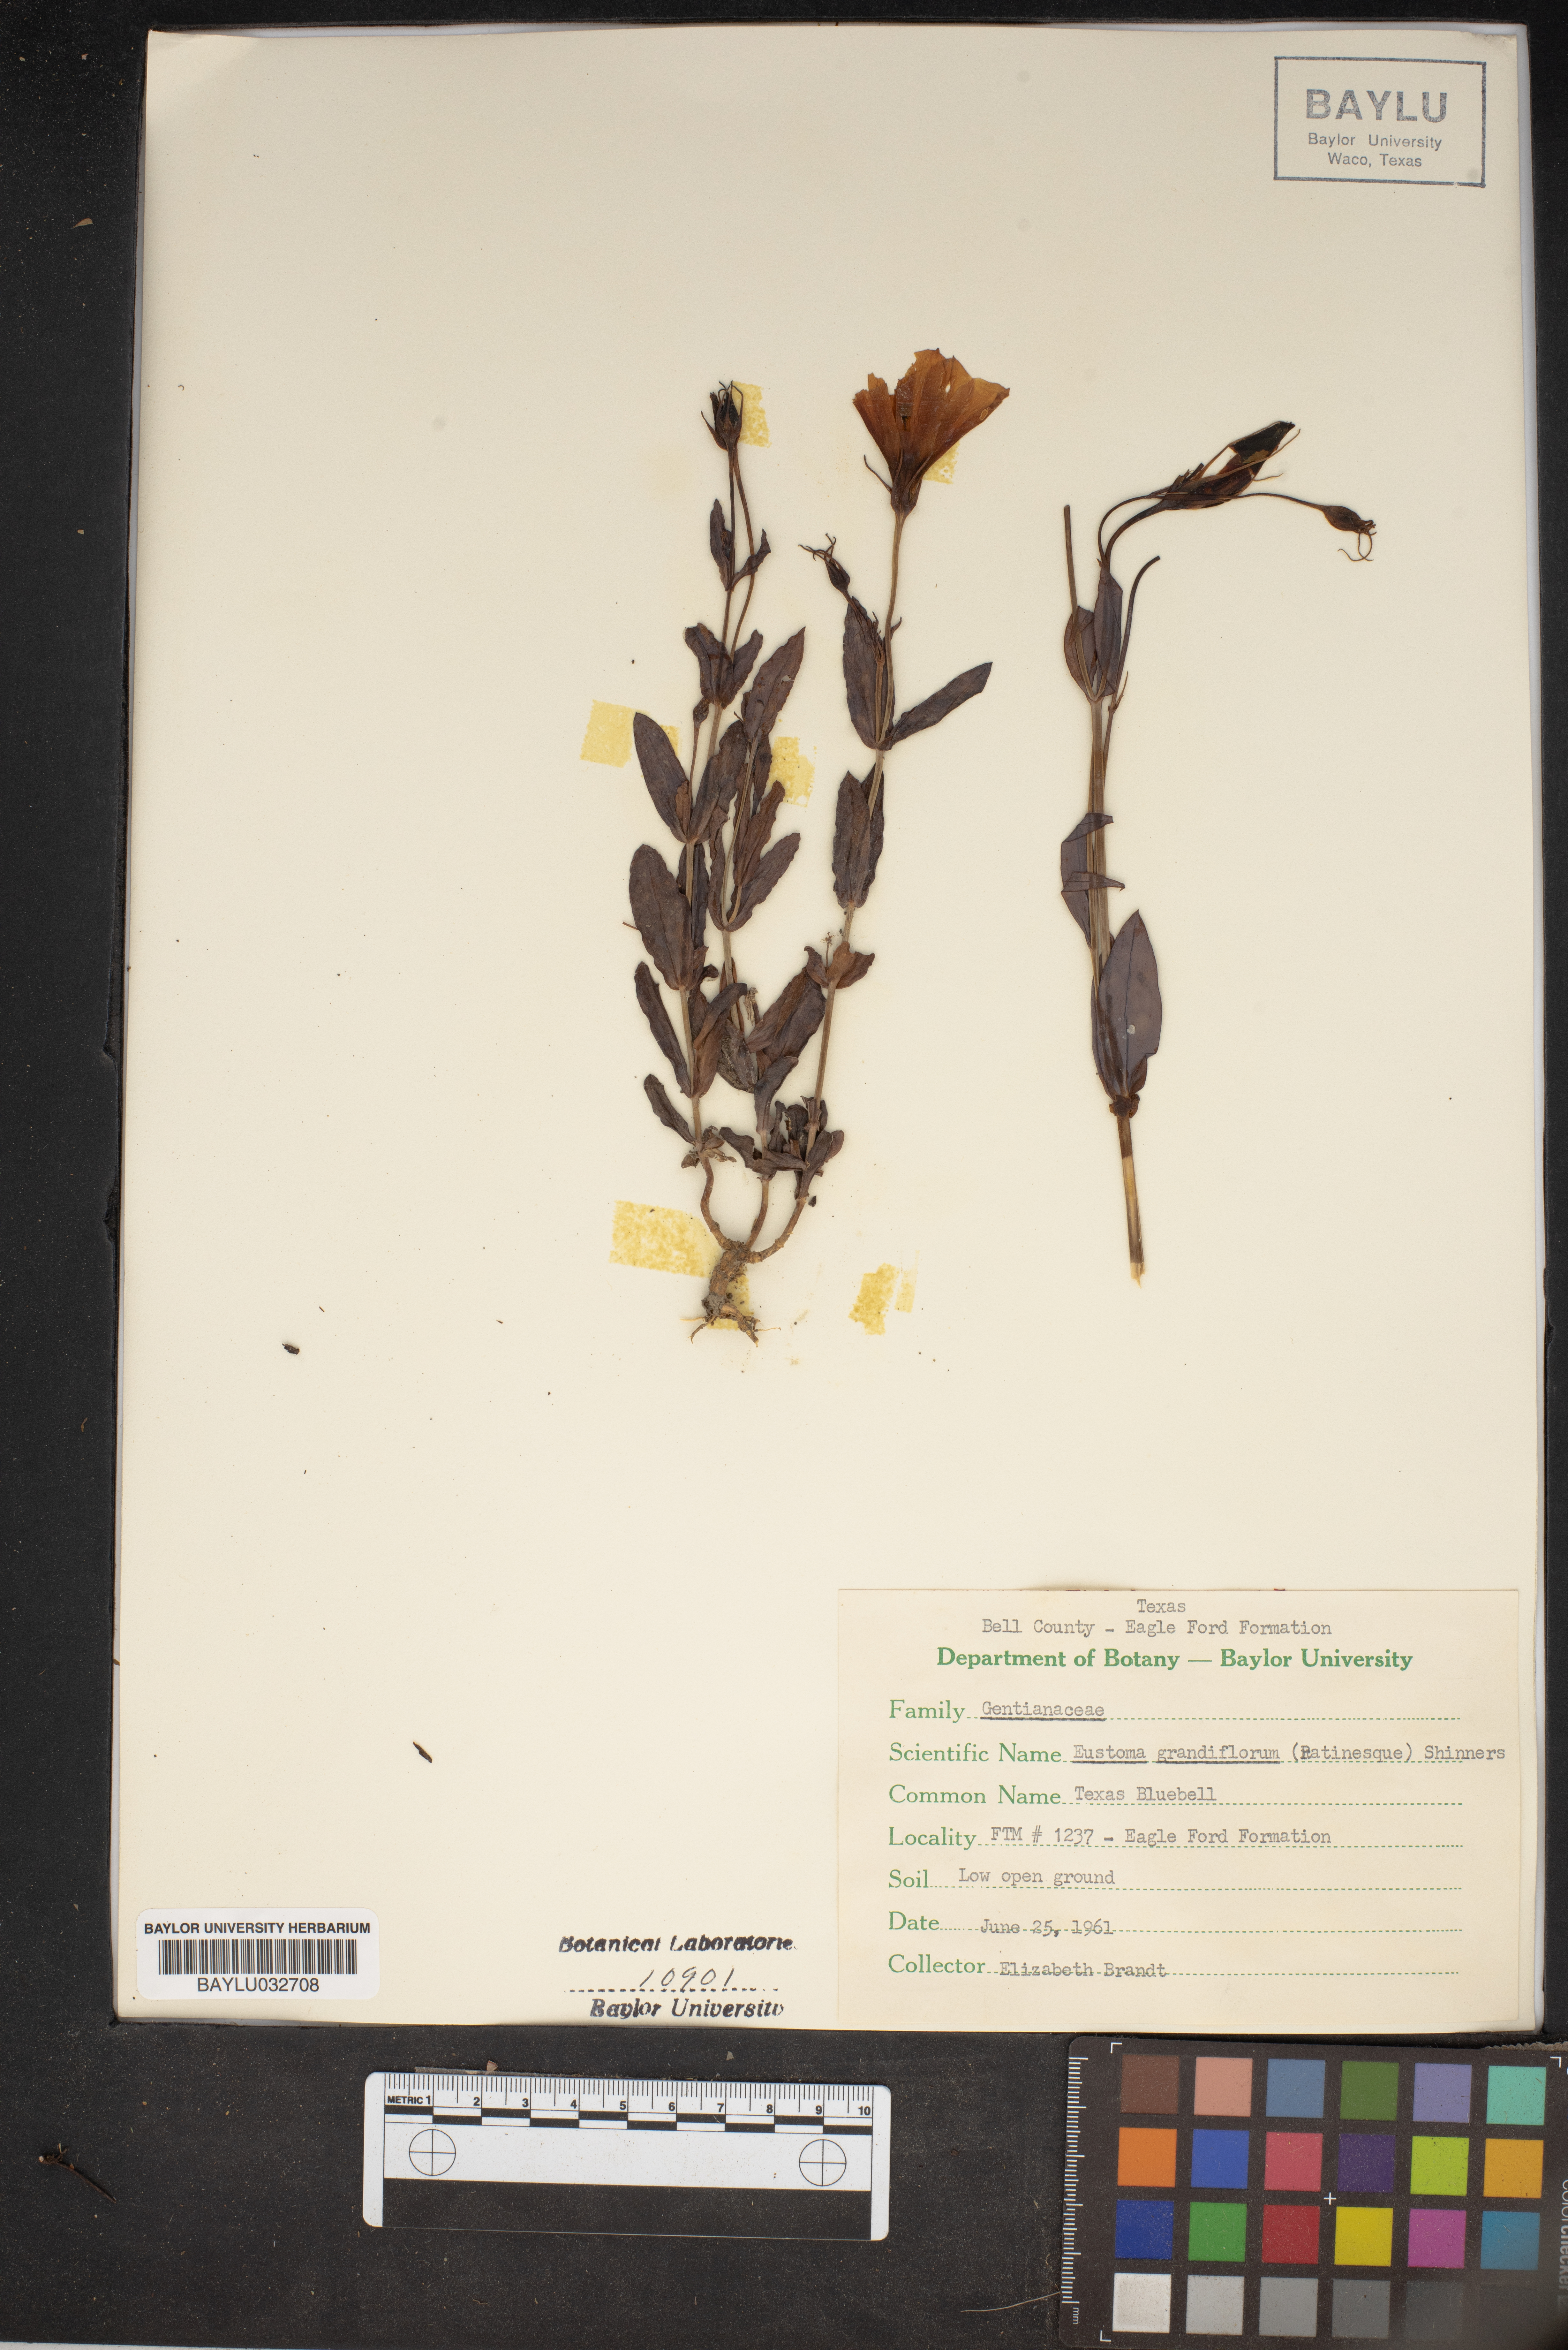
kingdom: Plantae
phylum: Tracheophyta
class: Magnoliopsida
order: Gentianales
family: Gentianaceae
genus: Eustoma
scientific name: Eustoma russellianum
